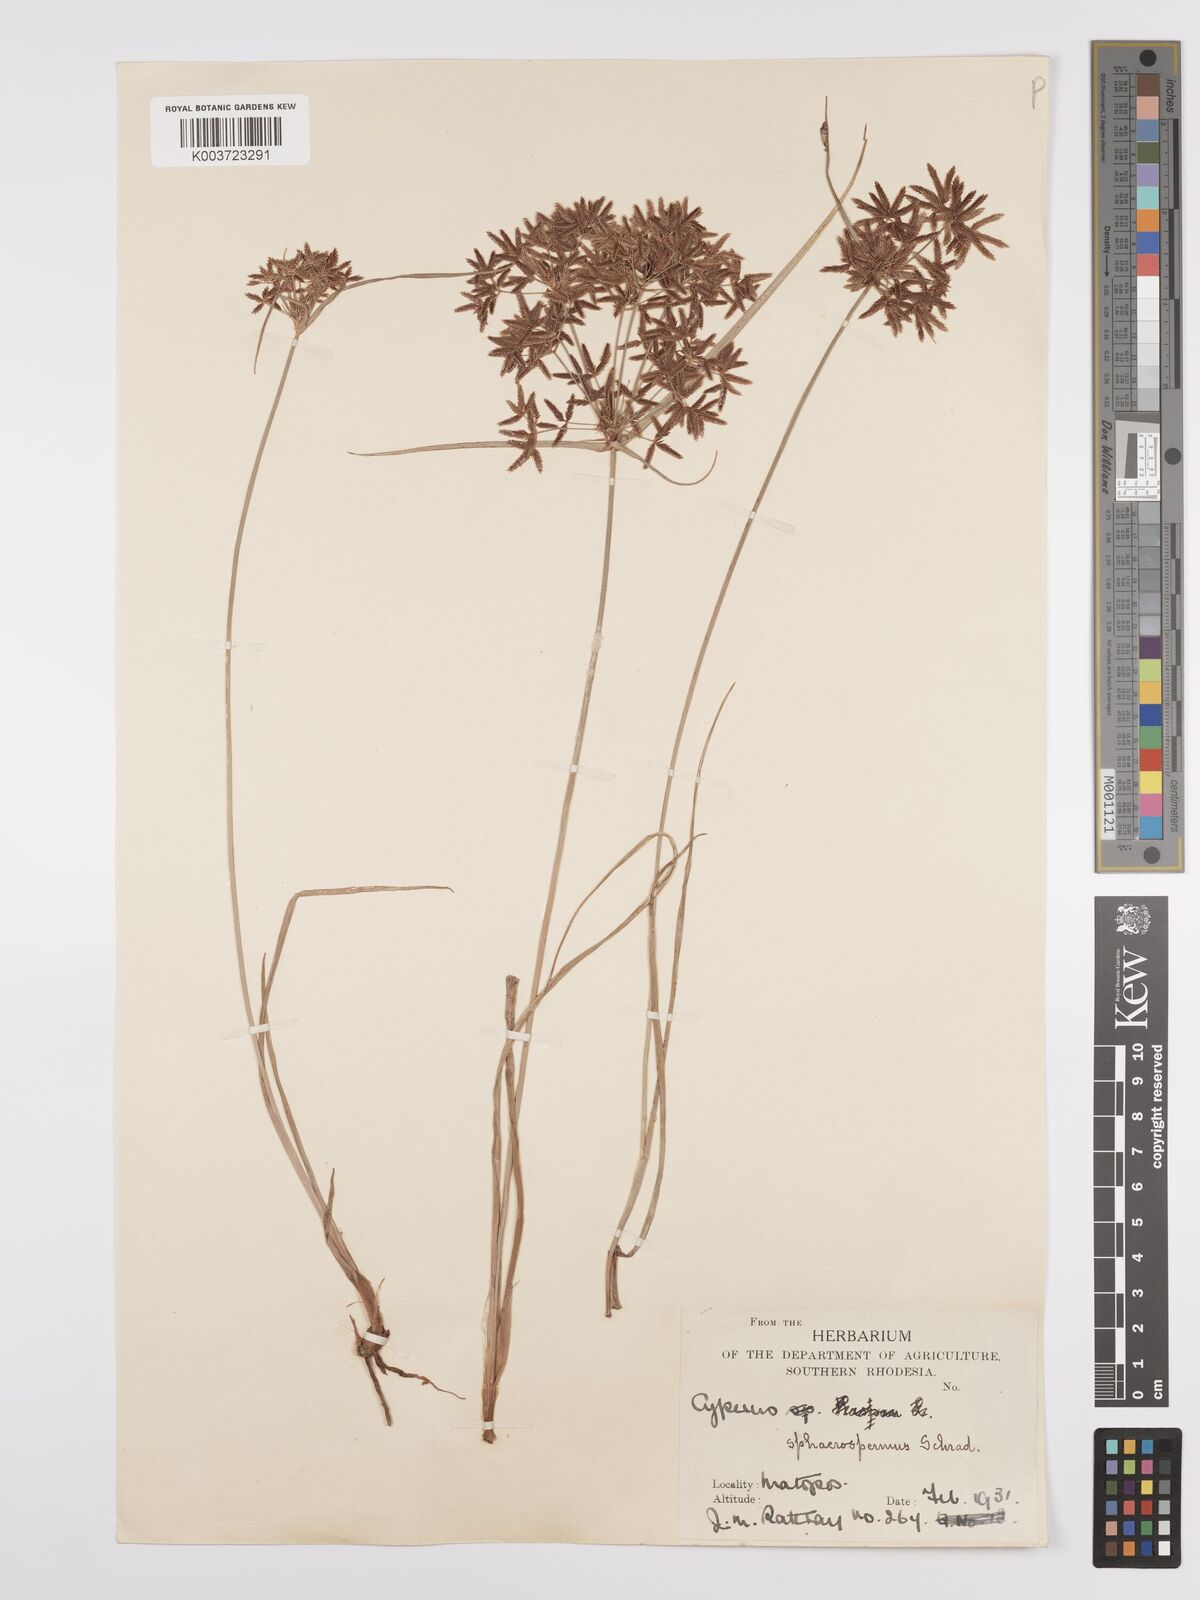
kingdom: Plantae
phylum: Tracheophyta
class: Liliopsida
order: Poales
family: Cyperaceae
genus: Cyperus
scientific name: Cyperus denudatus
